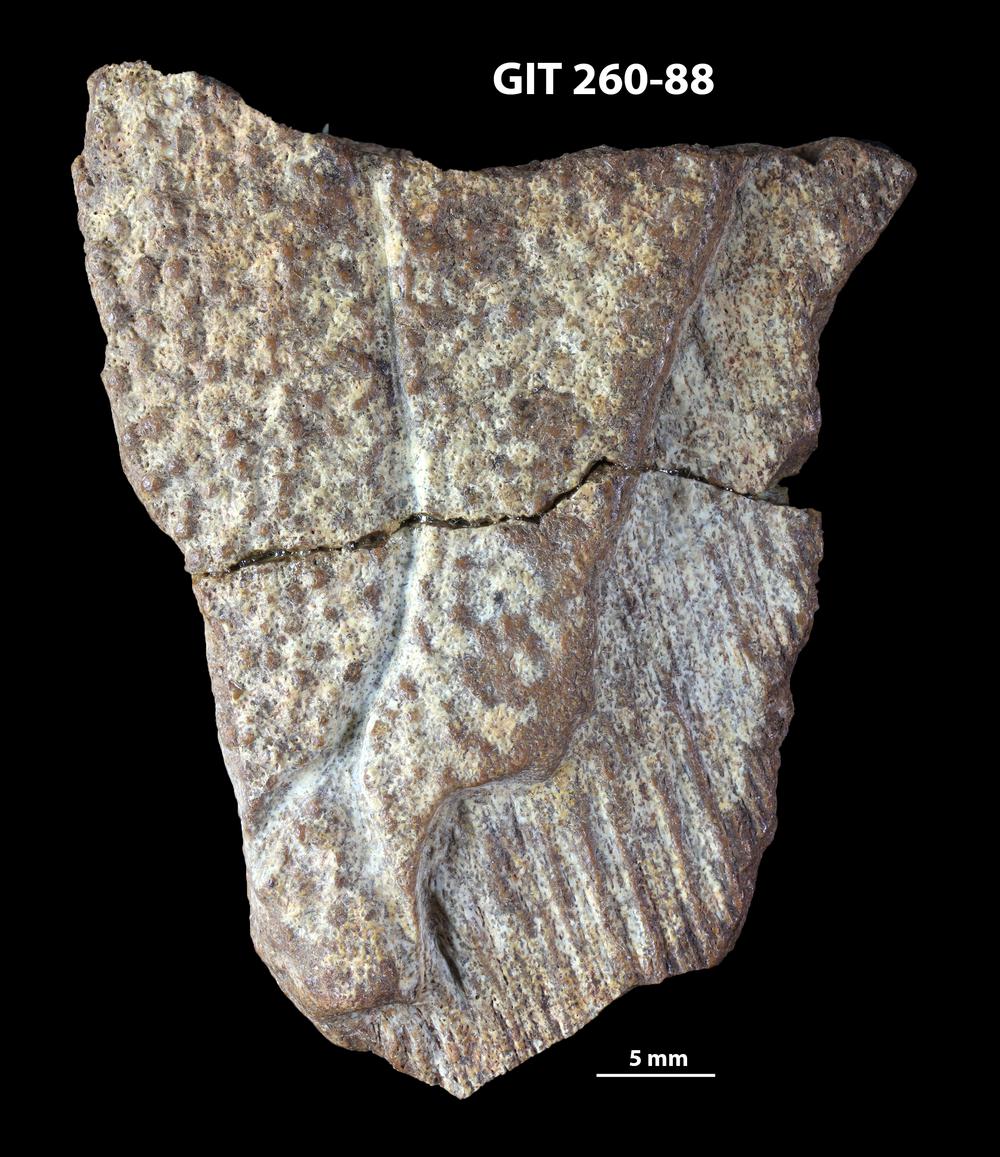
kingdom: Animalia
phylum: Chordata
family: Homostiidae
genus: Homostius
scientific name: Homostius
